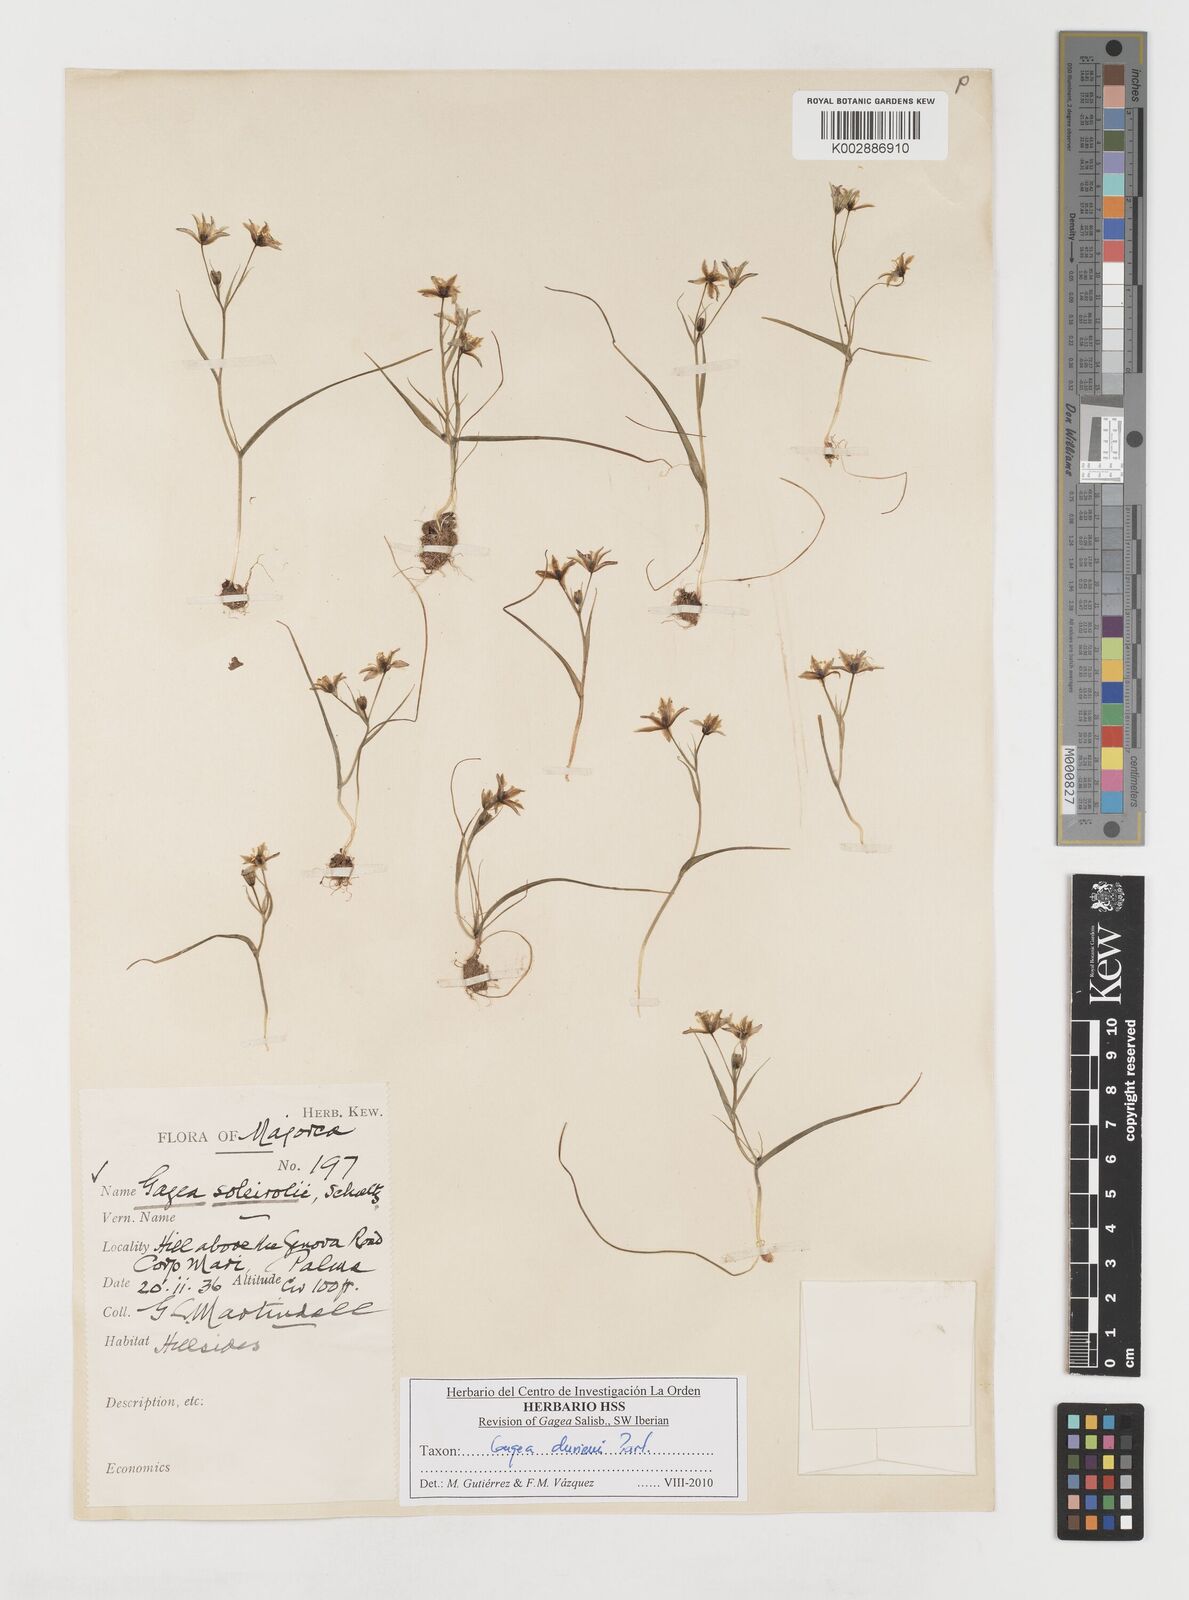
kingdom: Plantae
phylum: Tracheophyta
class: Liliopsida
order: Liliales
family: Liliaceae
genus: Gagea
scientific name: Gagea durieui
